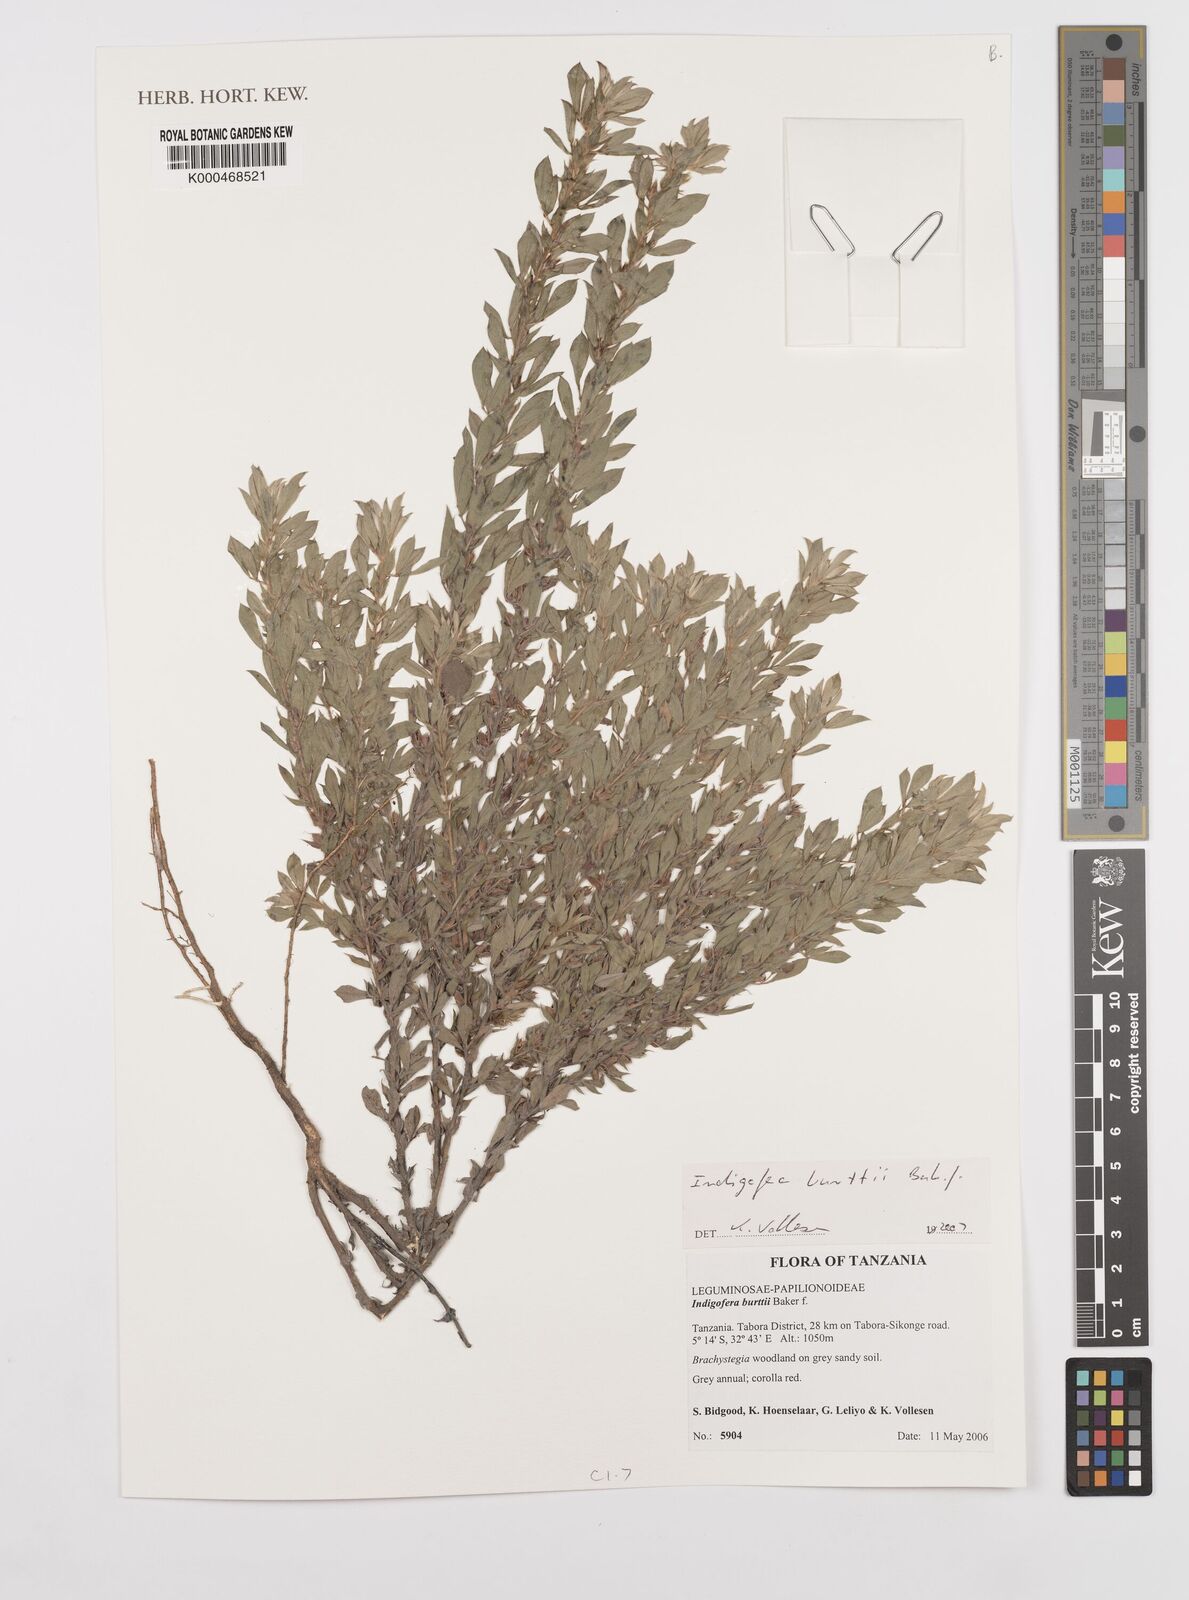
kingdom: Plantae
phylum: Tracheophyta
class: Magnoliopsida
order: Fabales
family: Fabaceae
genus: Indigofera
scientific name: Indigofera burttii
